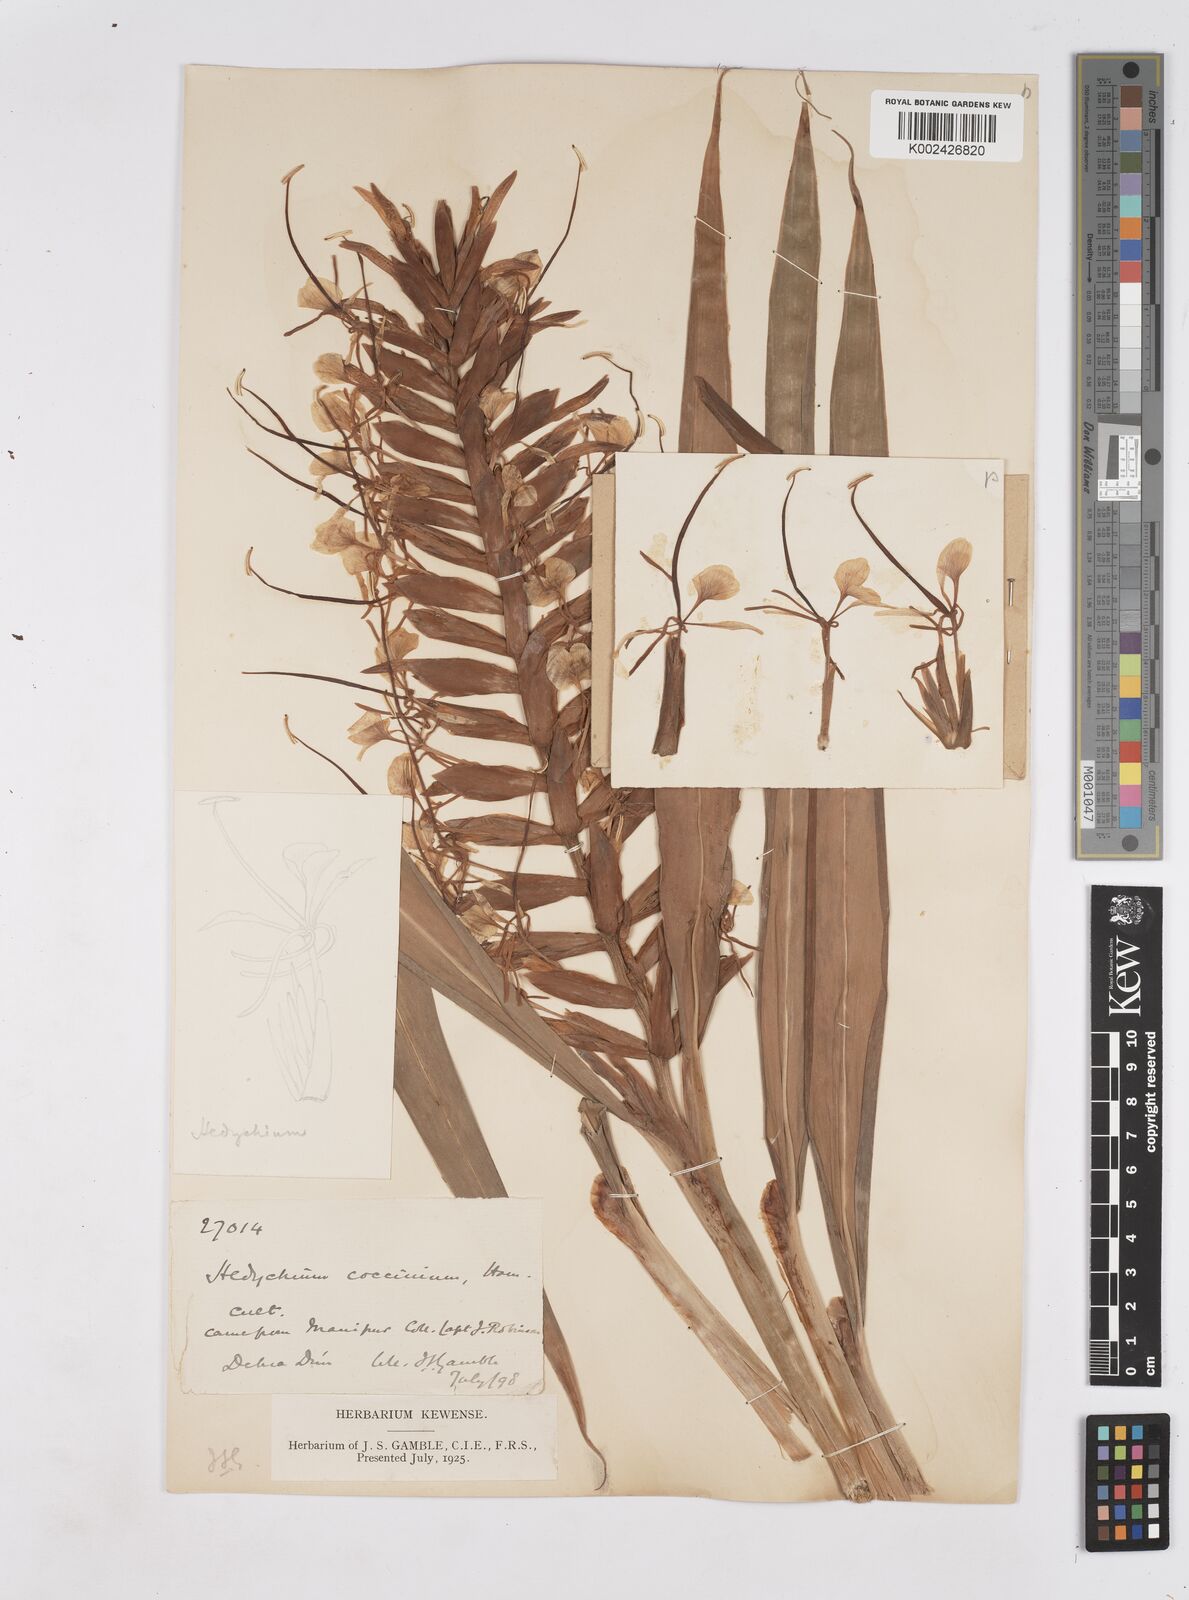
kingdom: Plantae
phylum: Tracheophyta
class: Liliopsida
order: Zingiberales
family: Zingiberaceae
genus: Hedychium
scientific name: Hedychium coccineum
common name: Red ginger-lily
